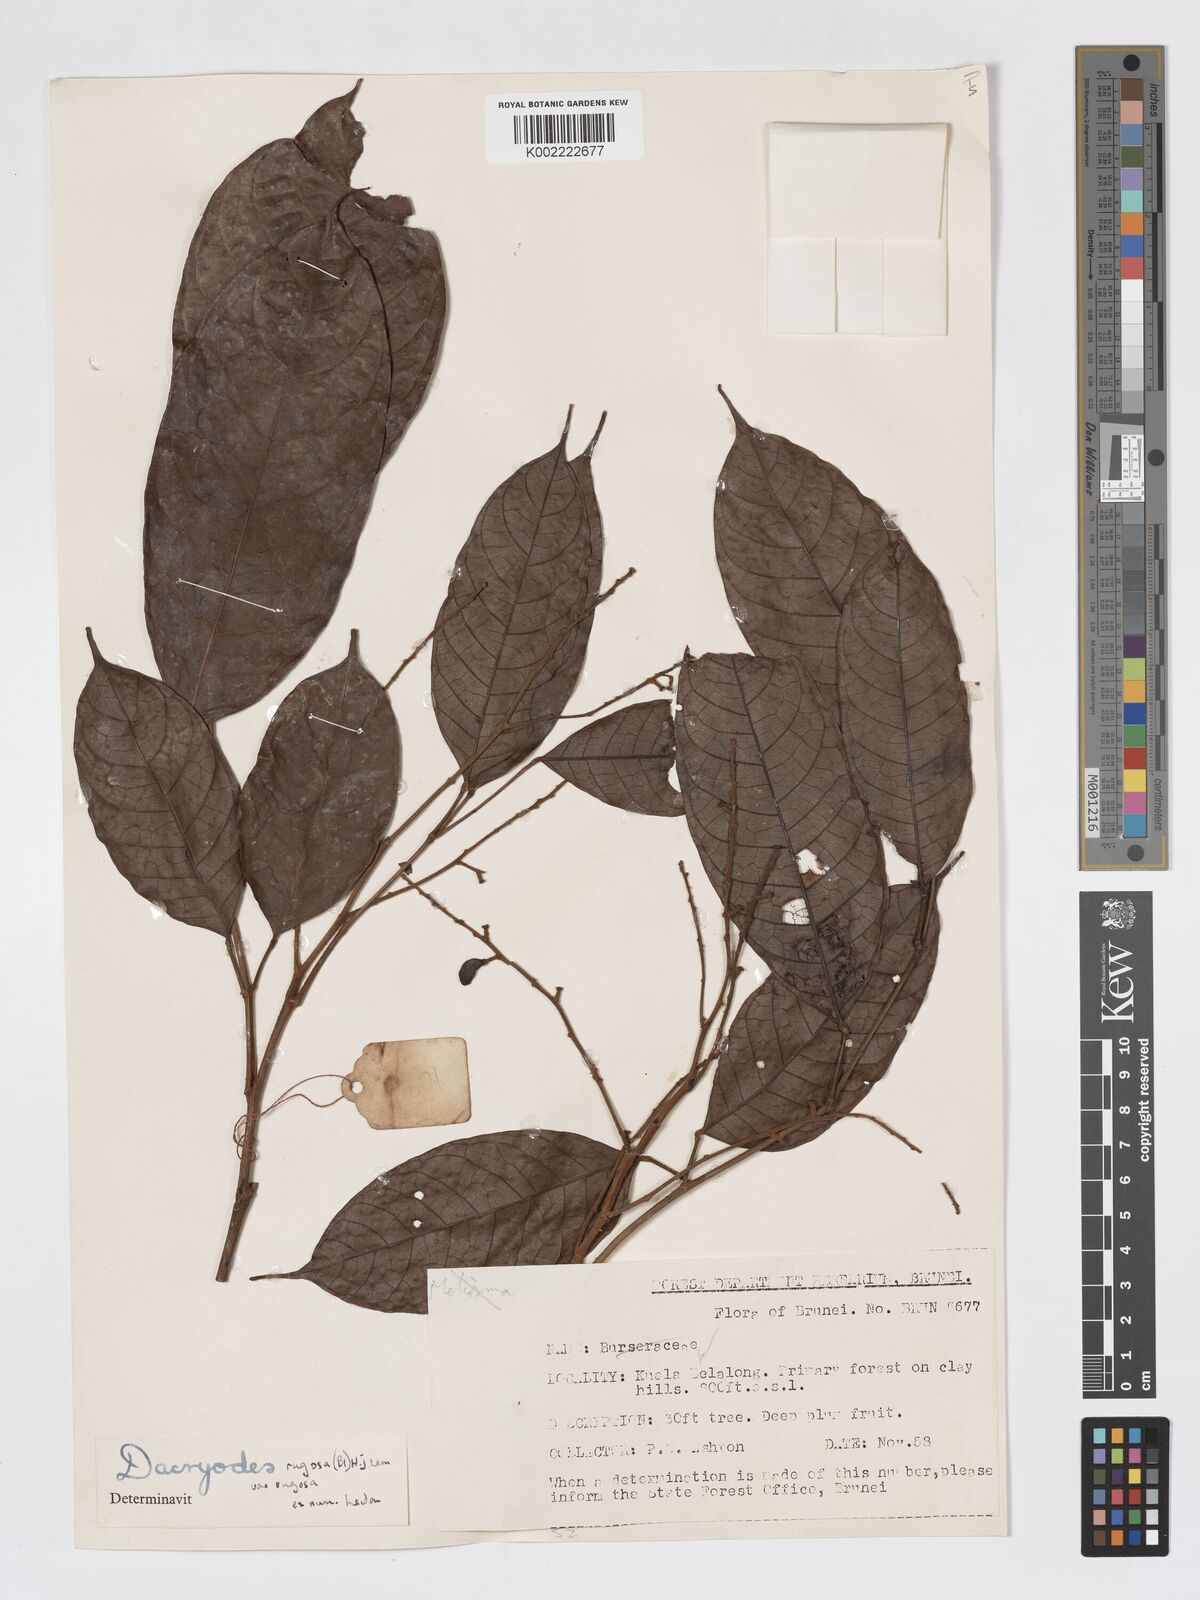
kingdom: Plantae
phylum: Tracheophyta
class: Magnoliopsida
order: Sapindales
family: Burseraceae
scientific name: Burseraceae
